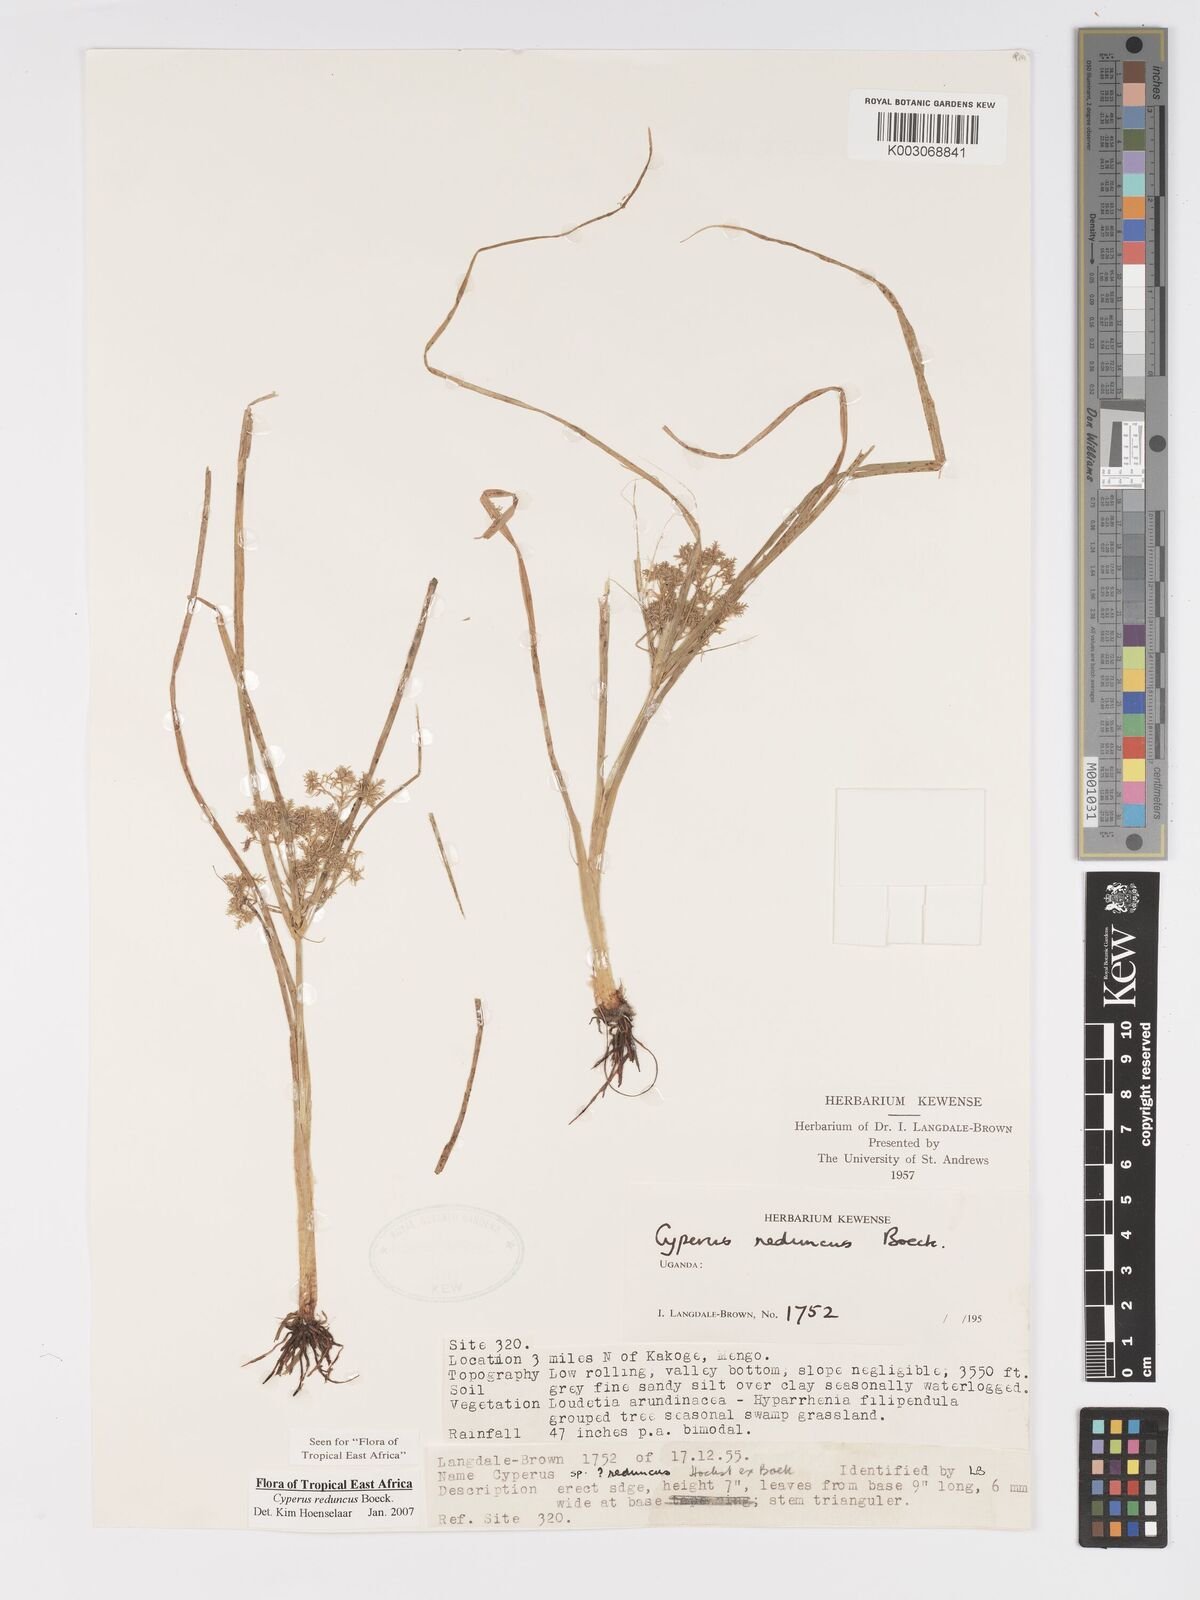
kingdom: Plantae
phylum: Tracheophyta
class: Liliopsida
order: Poales
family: Cyperaceae
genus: Cyperus
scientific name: Cyperus reduncus
